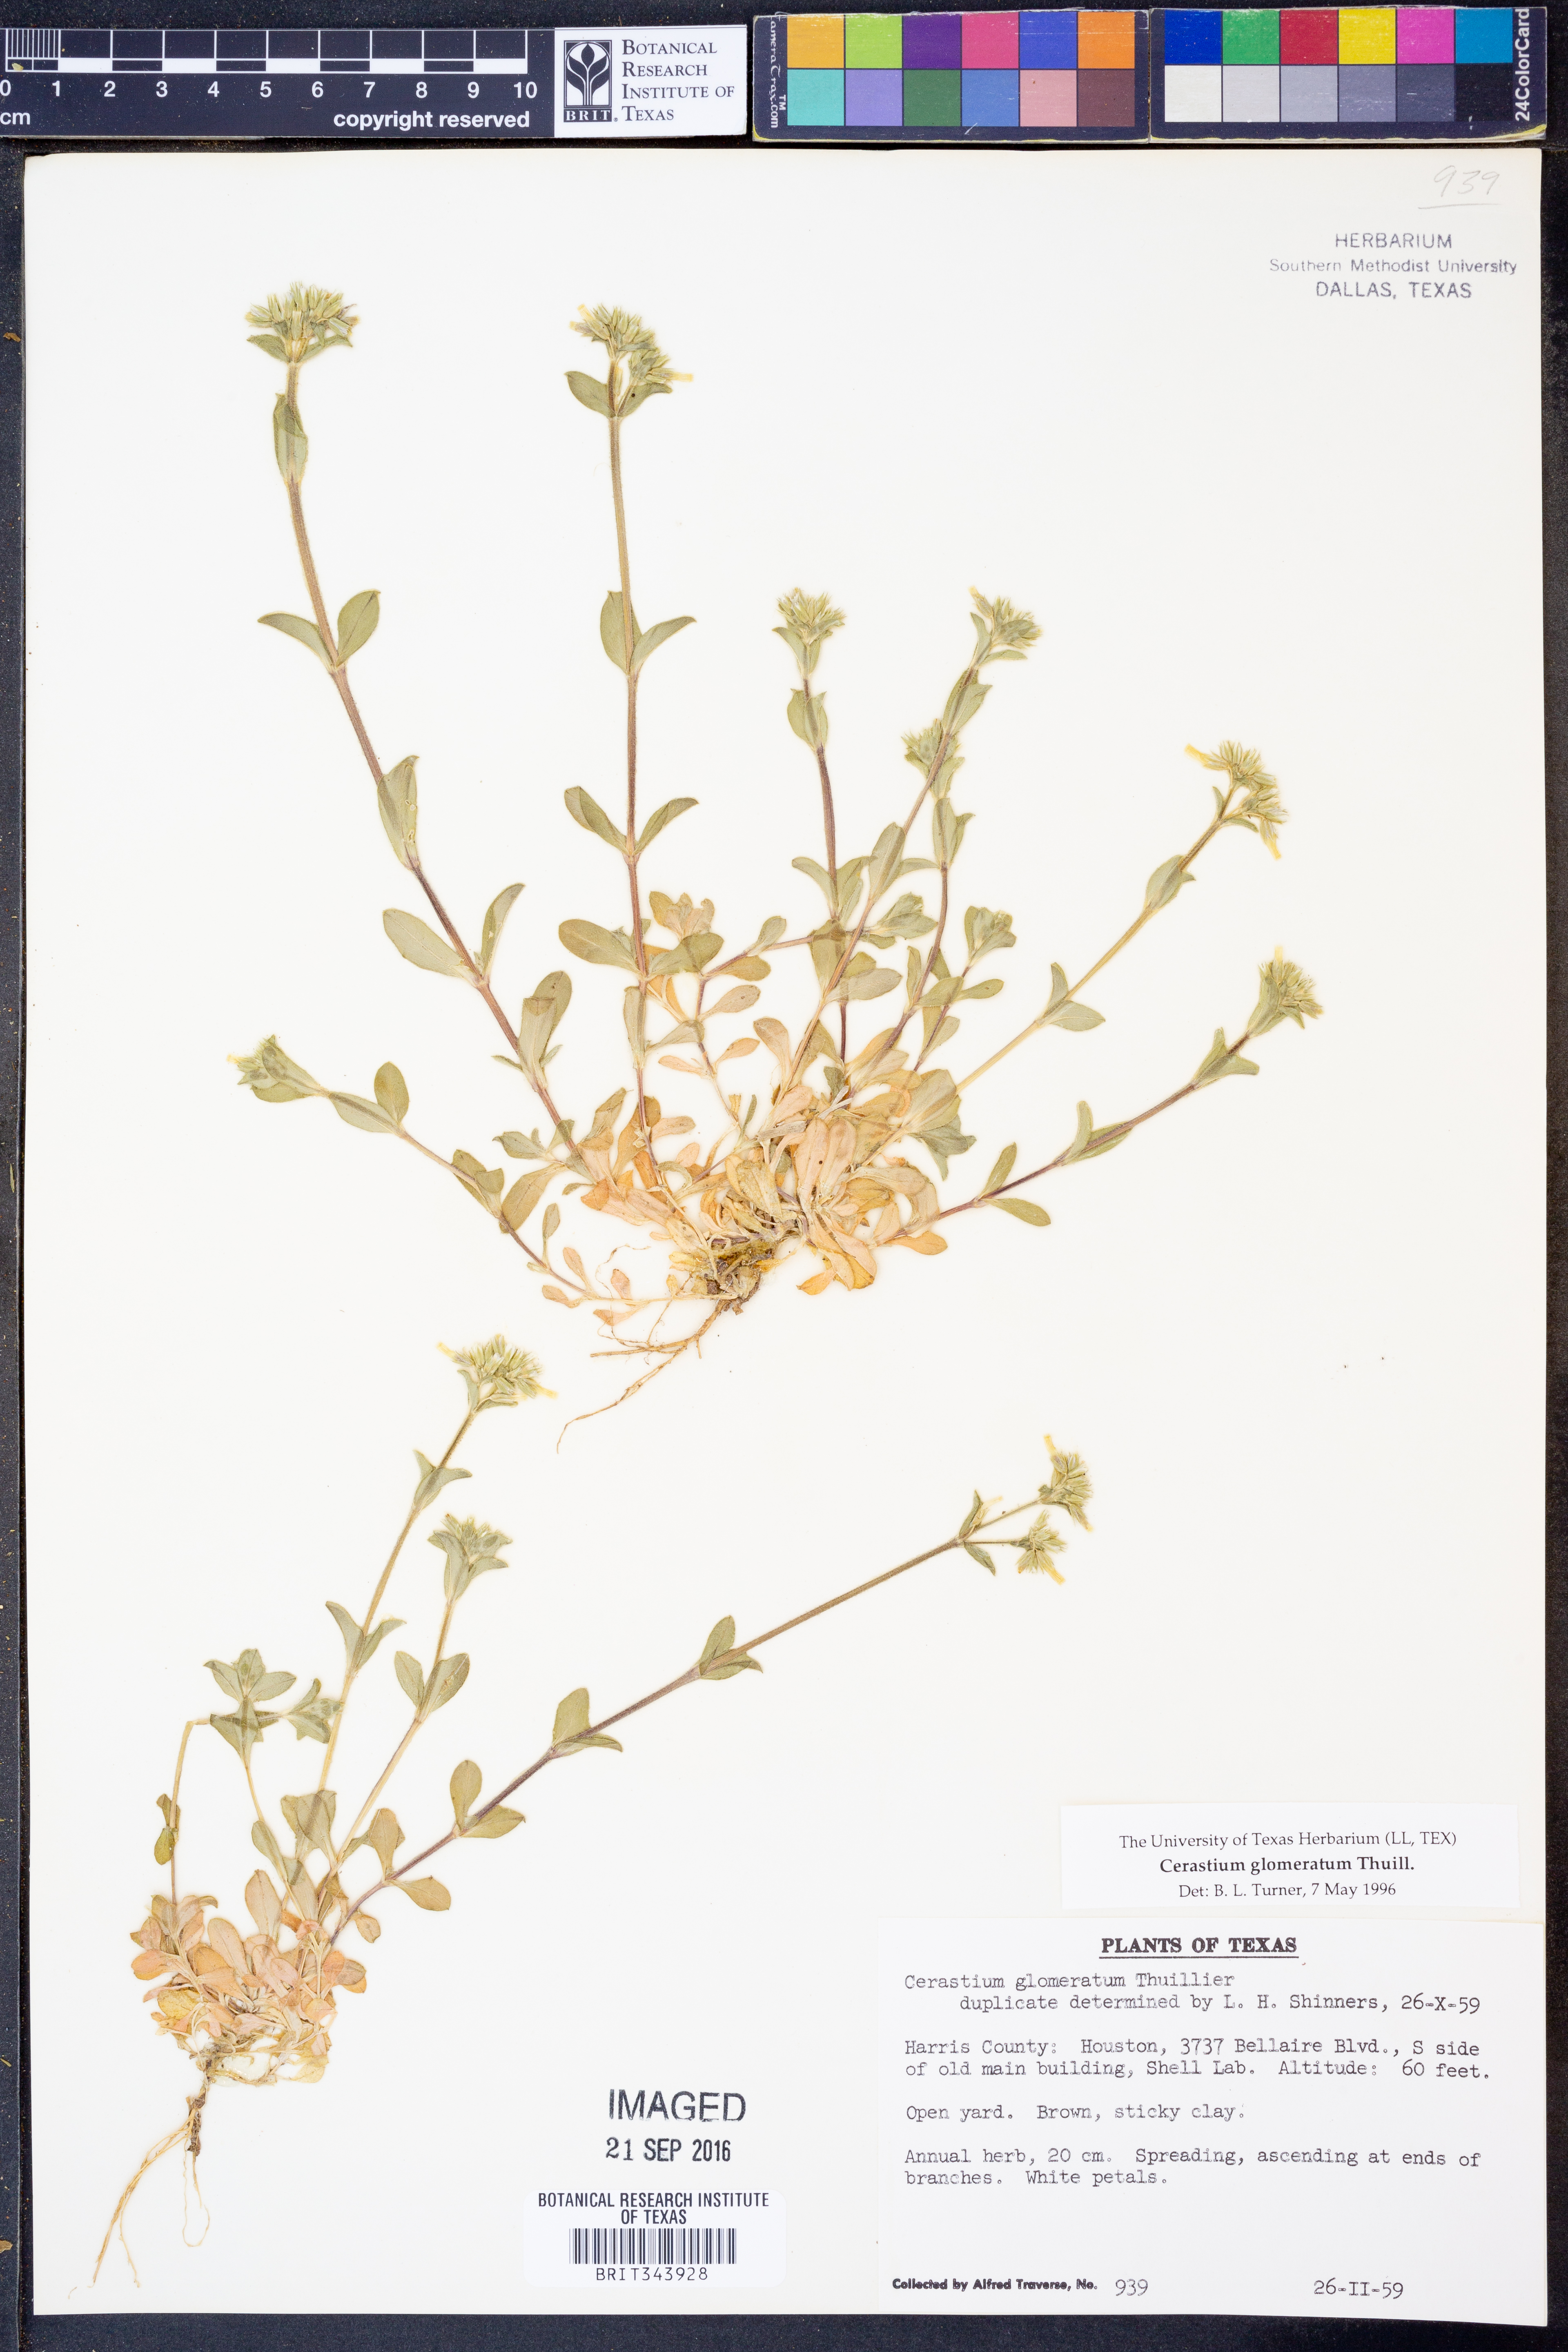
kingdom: Plantae
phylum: Tracheophyta
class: Magnoliopsida
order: Caryophyllales
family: Caryophyllaceae
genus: Cerastium
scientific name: Cerastium glomeratum
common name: Sticky chickweed
